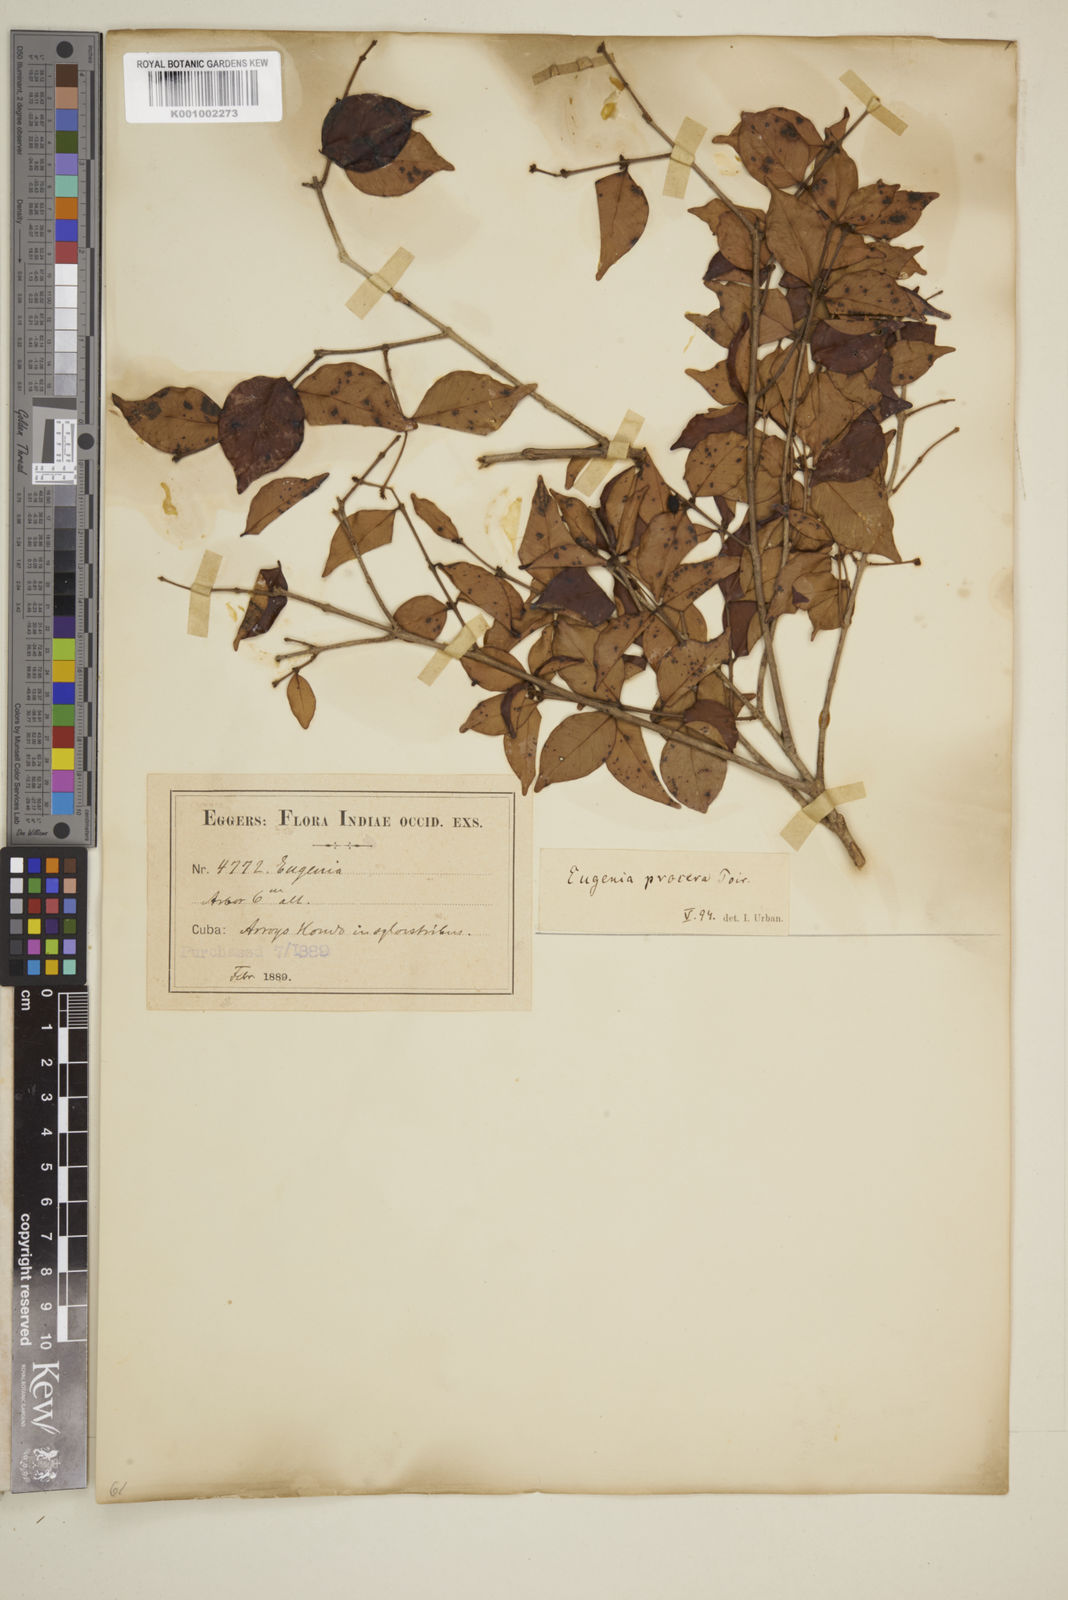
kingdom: Plantae
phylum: Tracheophyta
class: Magnoliopsida
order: Myrtales
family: Myrtaceae
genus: Eugenia
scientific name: Eugenia procera
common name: Bastard blackberry
